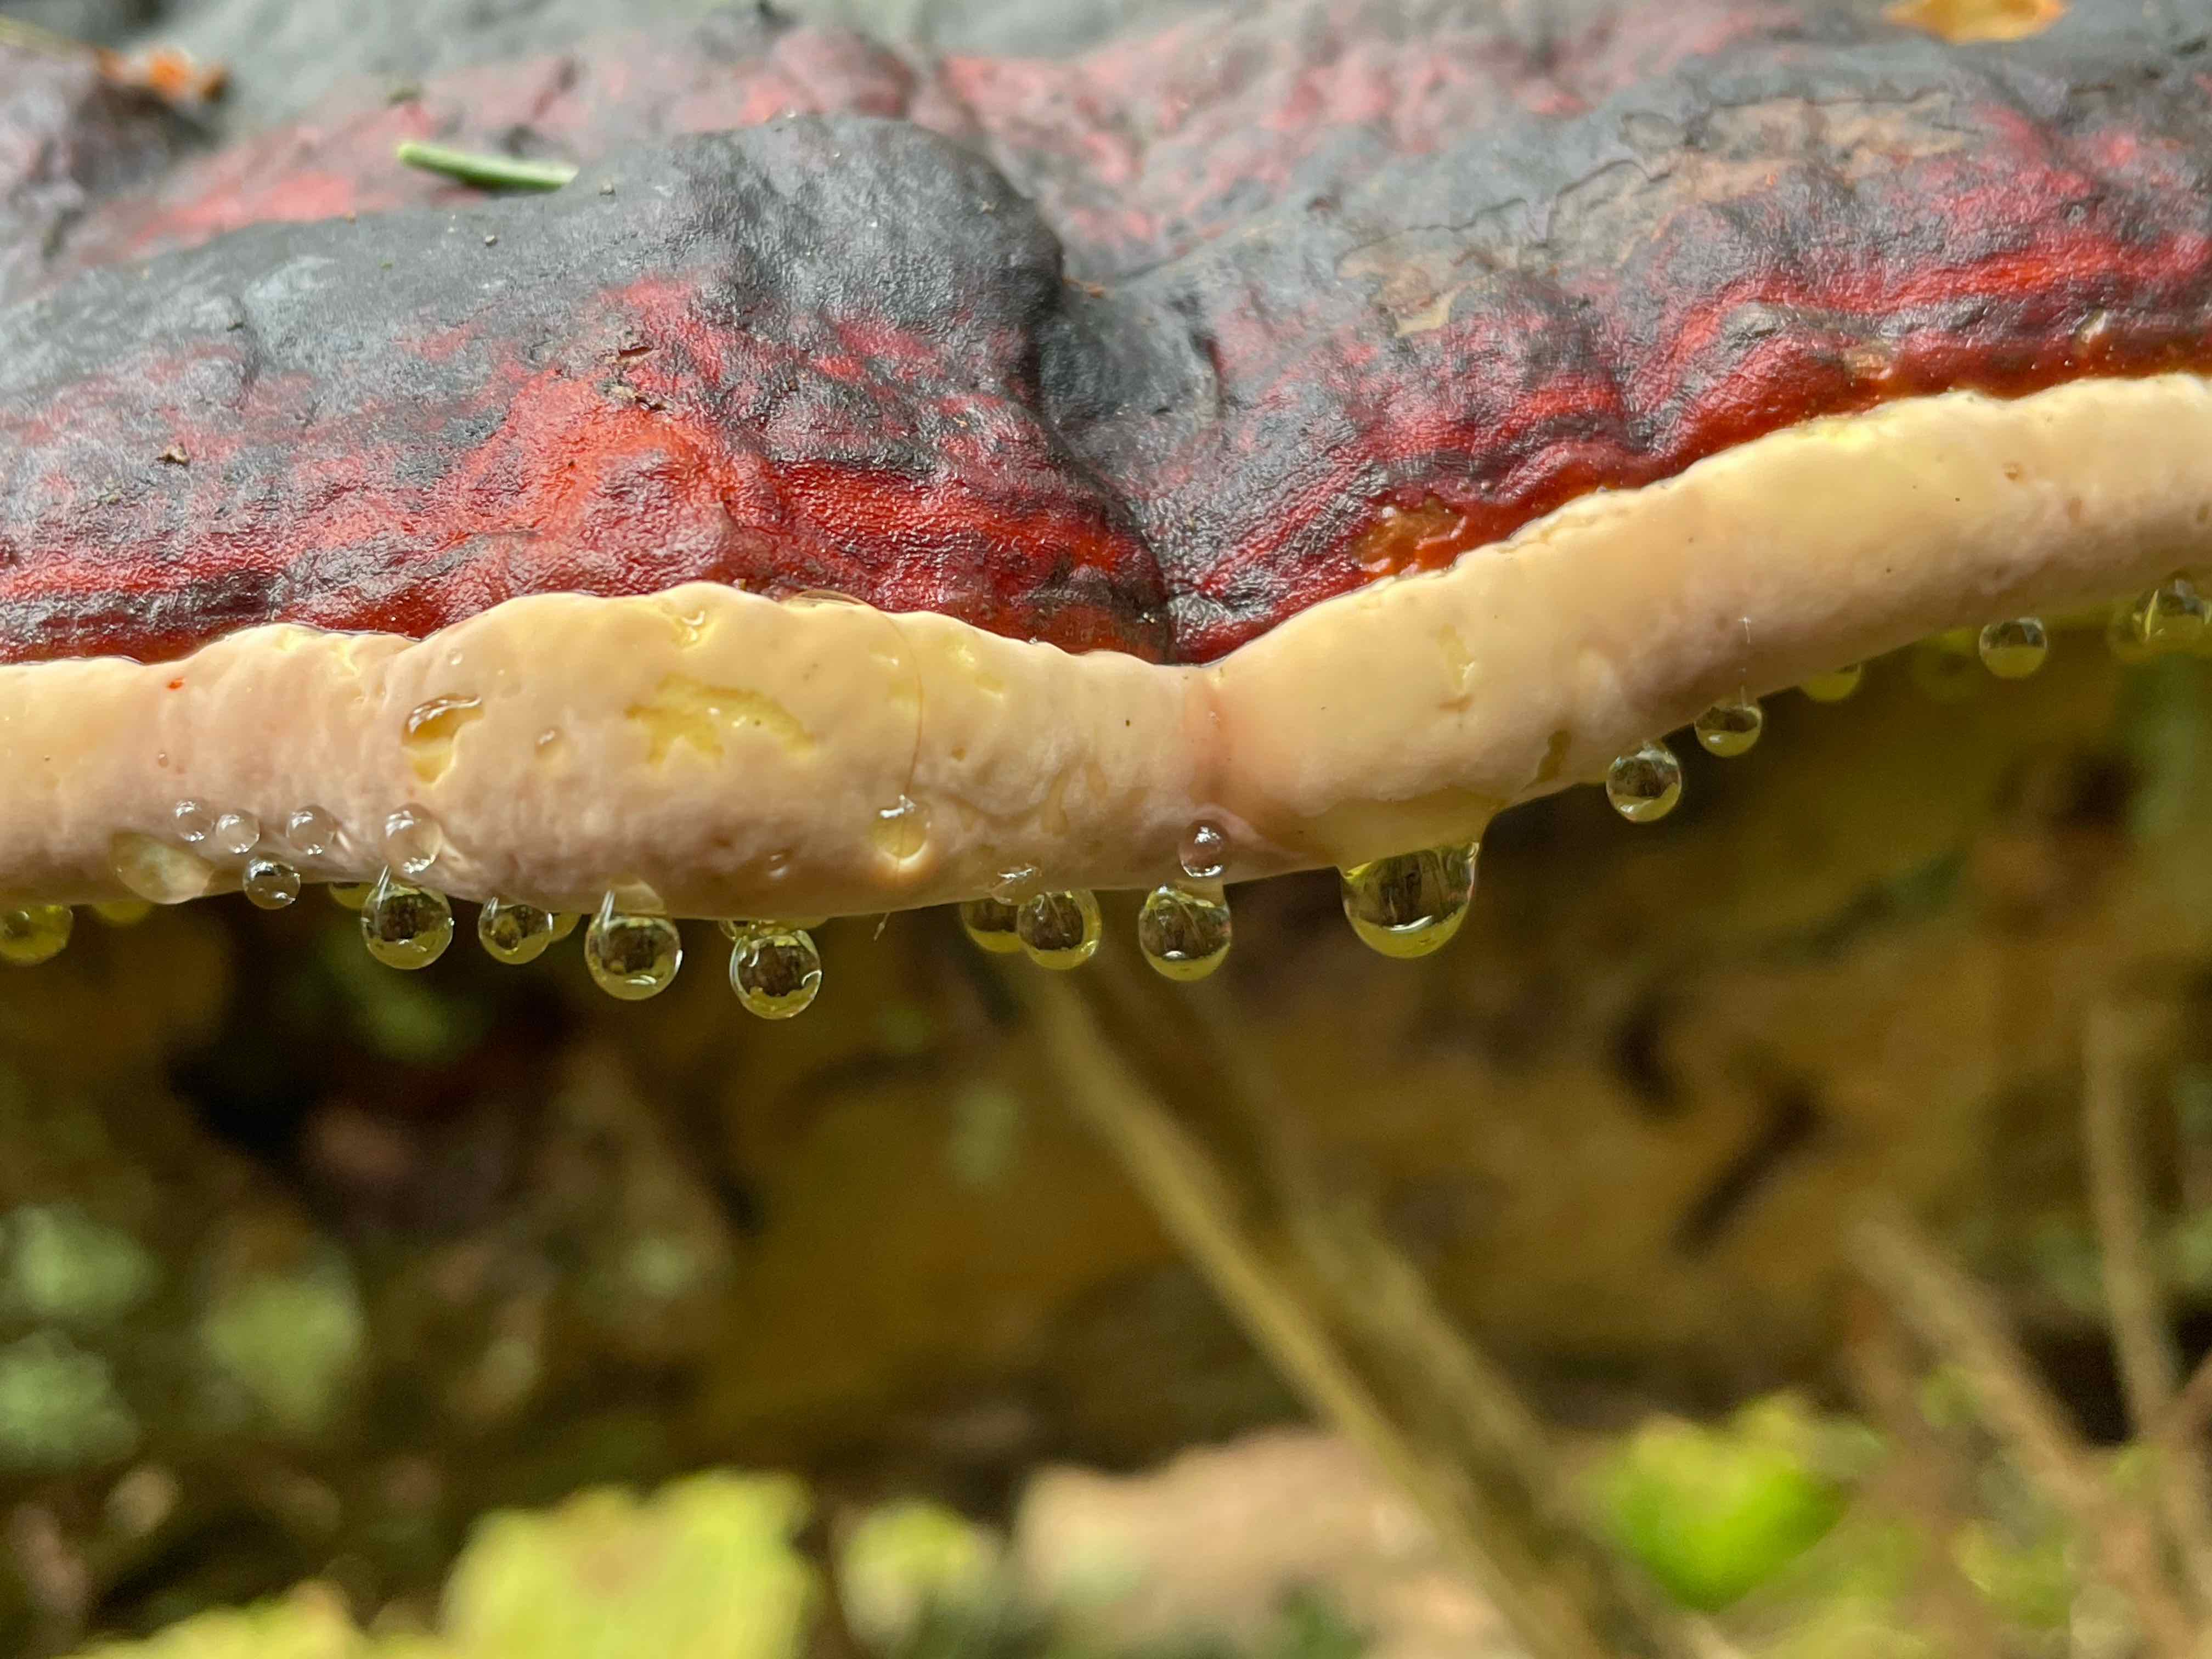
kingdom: Fungi
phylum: Basidiomycota
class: Agaricomycetes
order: Polyporales
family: Fomitopsidaceae
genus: Fomitopsis
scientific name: Fomitopsis pinicola
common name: randbæltet hovporesvamp
